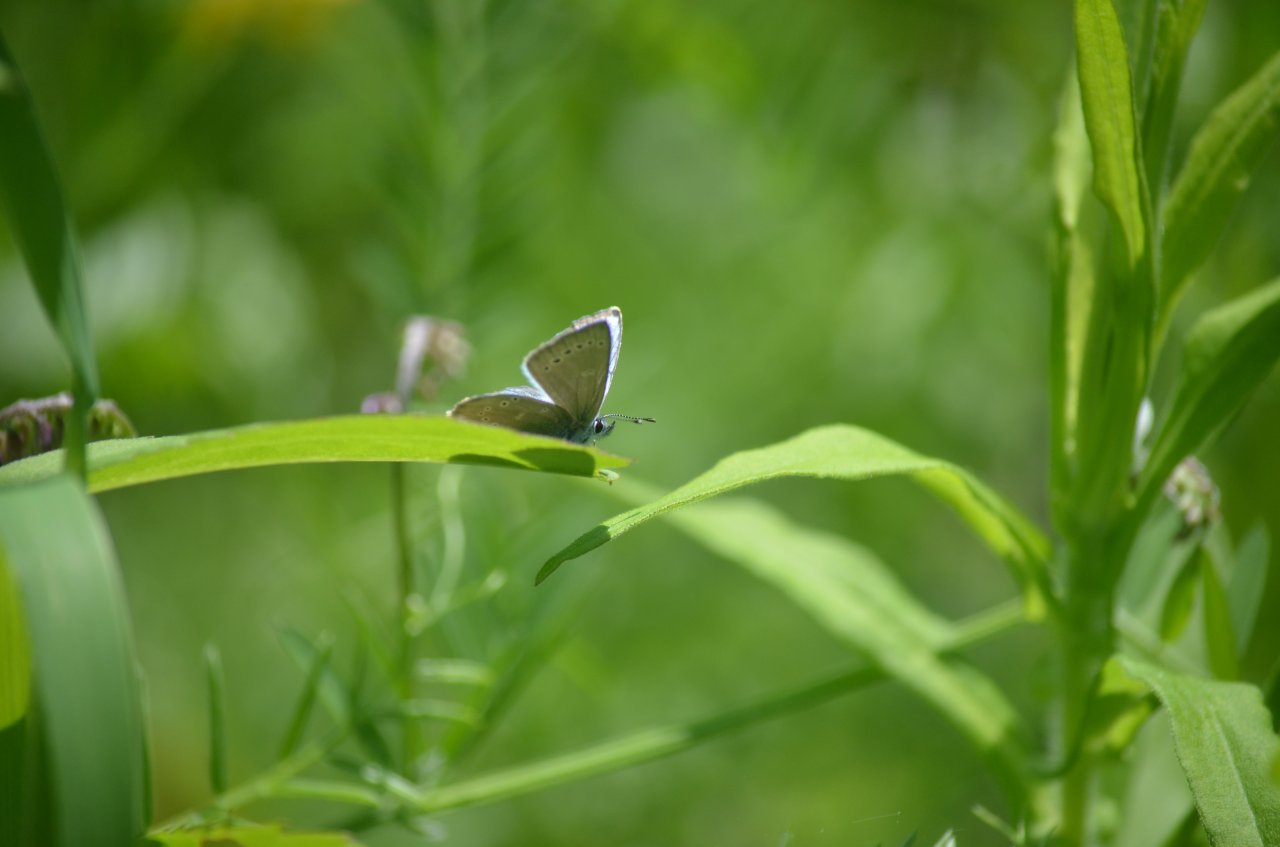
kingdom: Animalia
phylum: Arthropoda
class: Insecta
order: Lepidoptera
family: Lycaenidae
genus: Glaucopsyche
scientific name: Glaucopsyche lygdamus
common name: Silvery Blue
